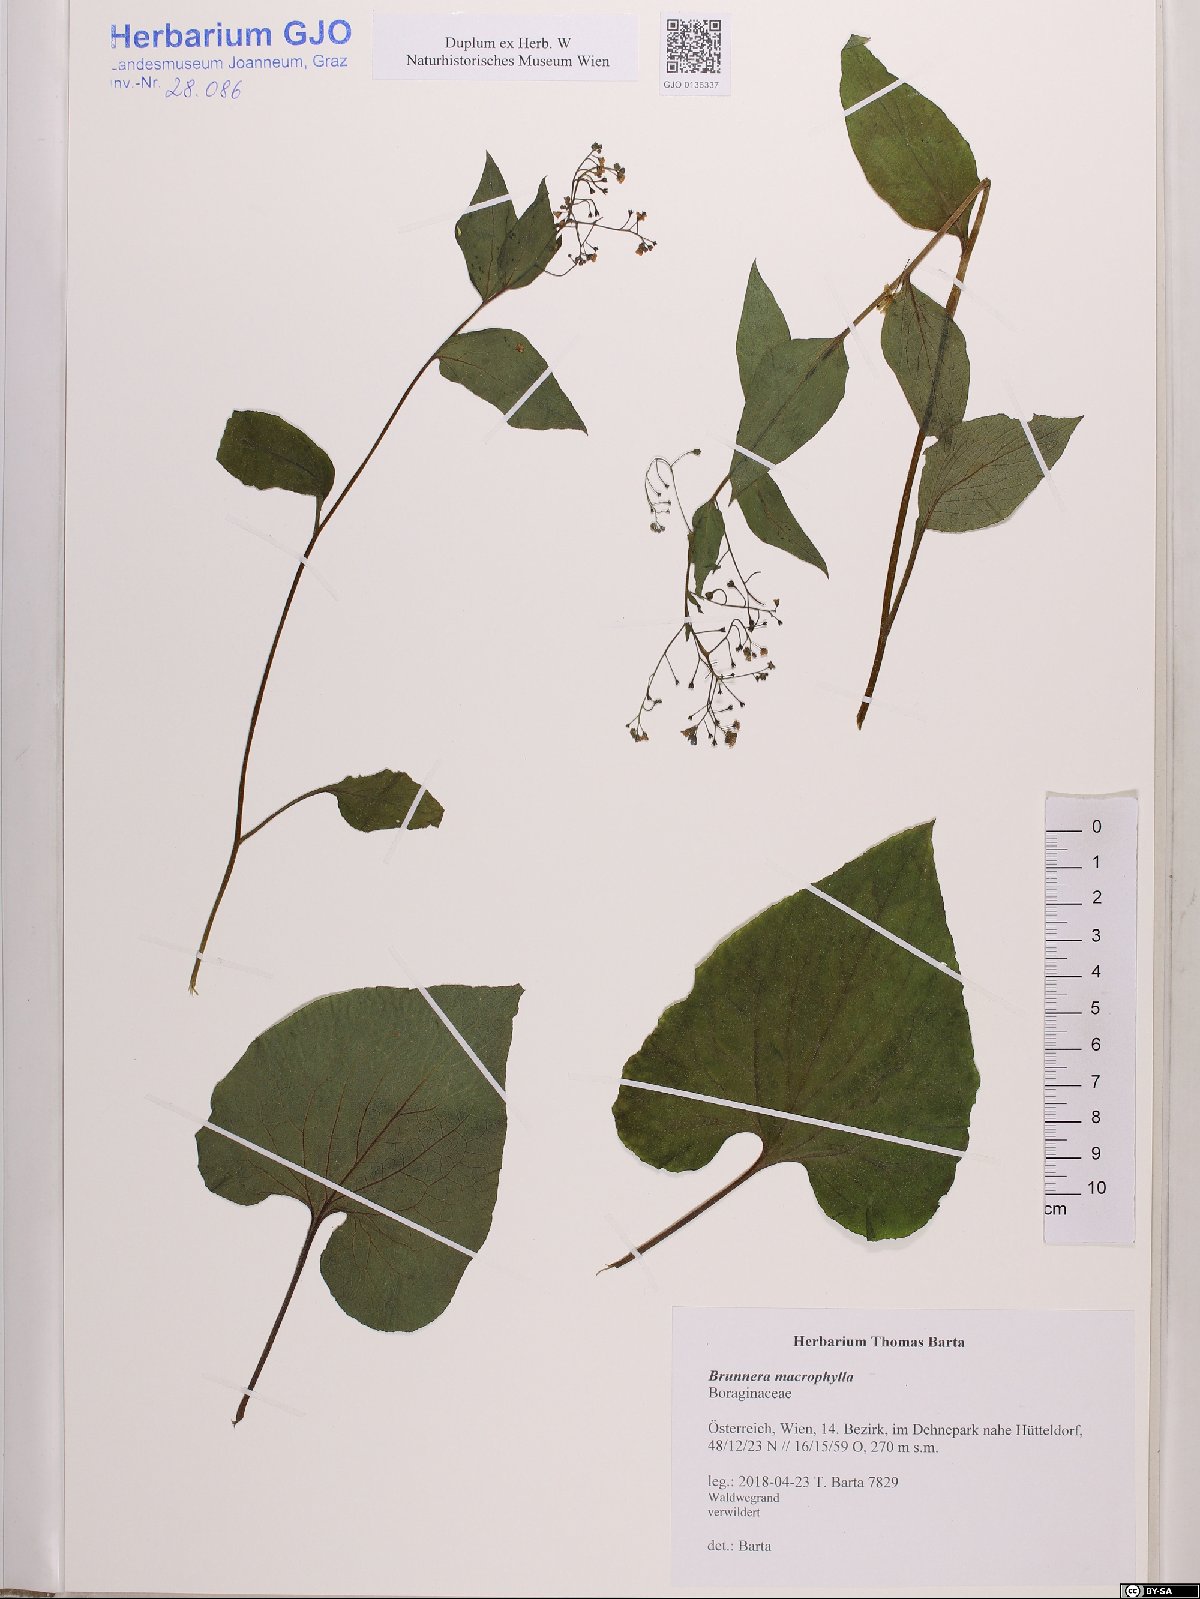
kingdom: Plantae
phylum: Tracheophyta
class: Magnoliopsida
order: Boraginales
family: Boraginaceae
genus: Brunnera
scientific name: Brunnera macrophylla
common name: Great forget-me-not
